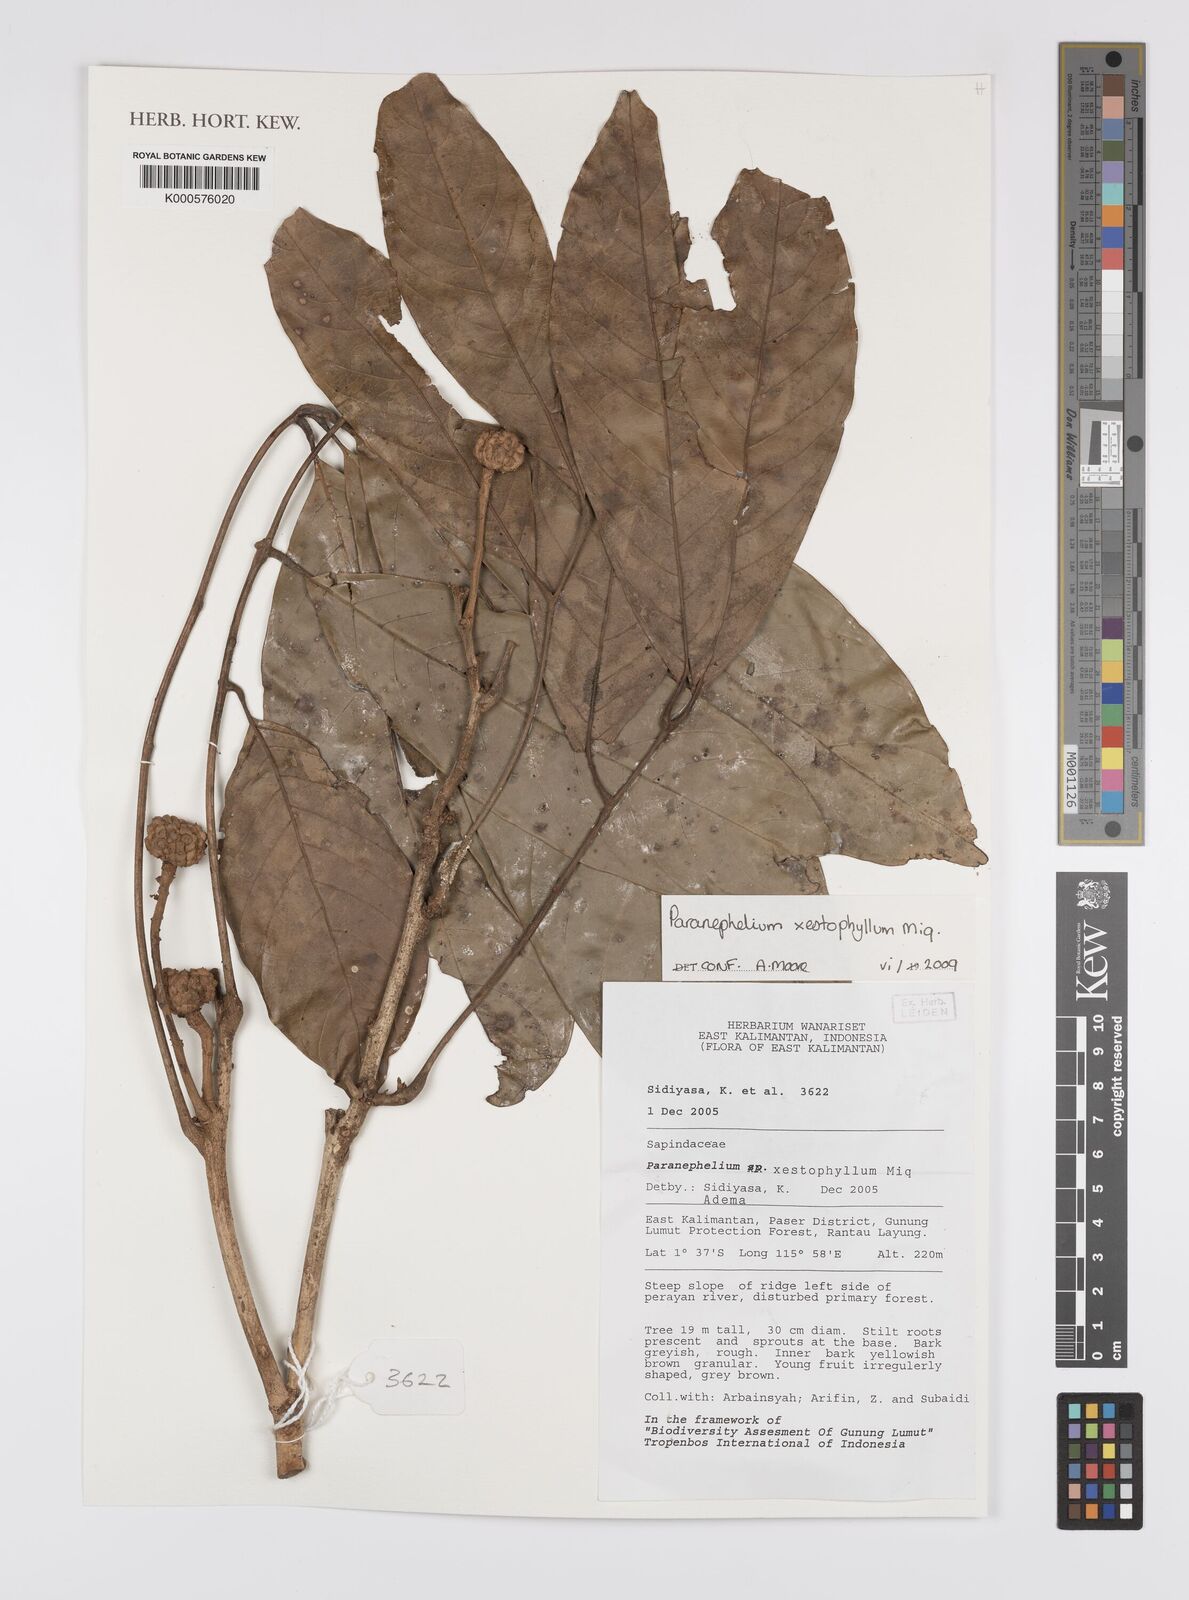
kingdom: Plantae
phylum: Tracheophyta
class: Magnoliopsida
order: Sapindales
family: Sapindaceae
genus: Paranephelium
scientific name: Paranephelium xestophyllum
